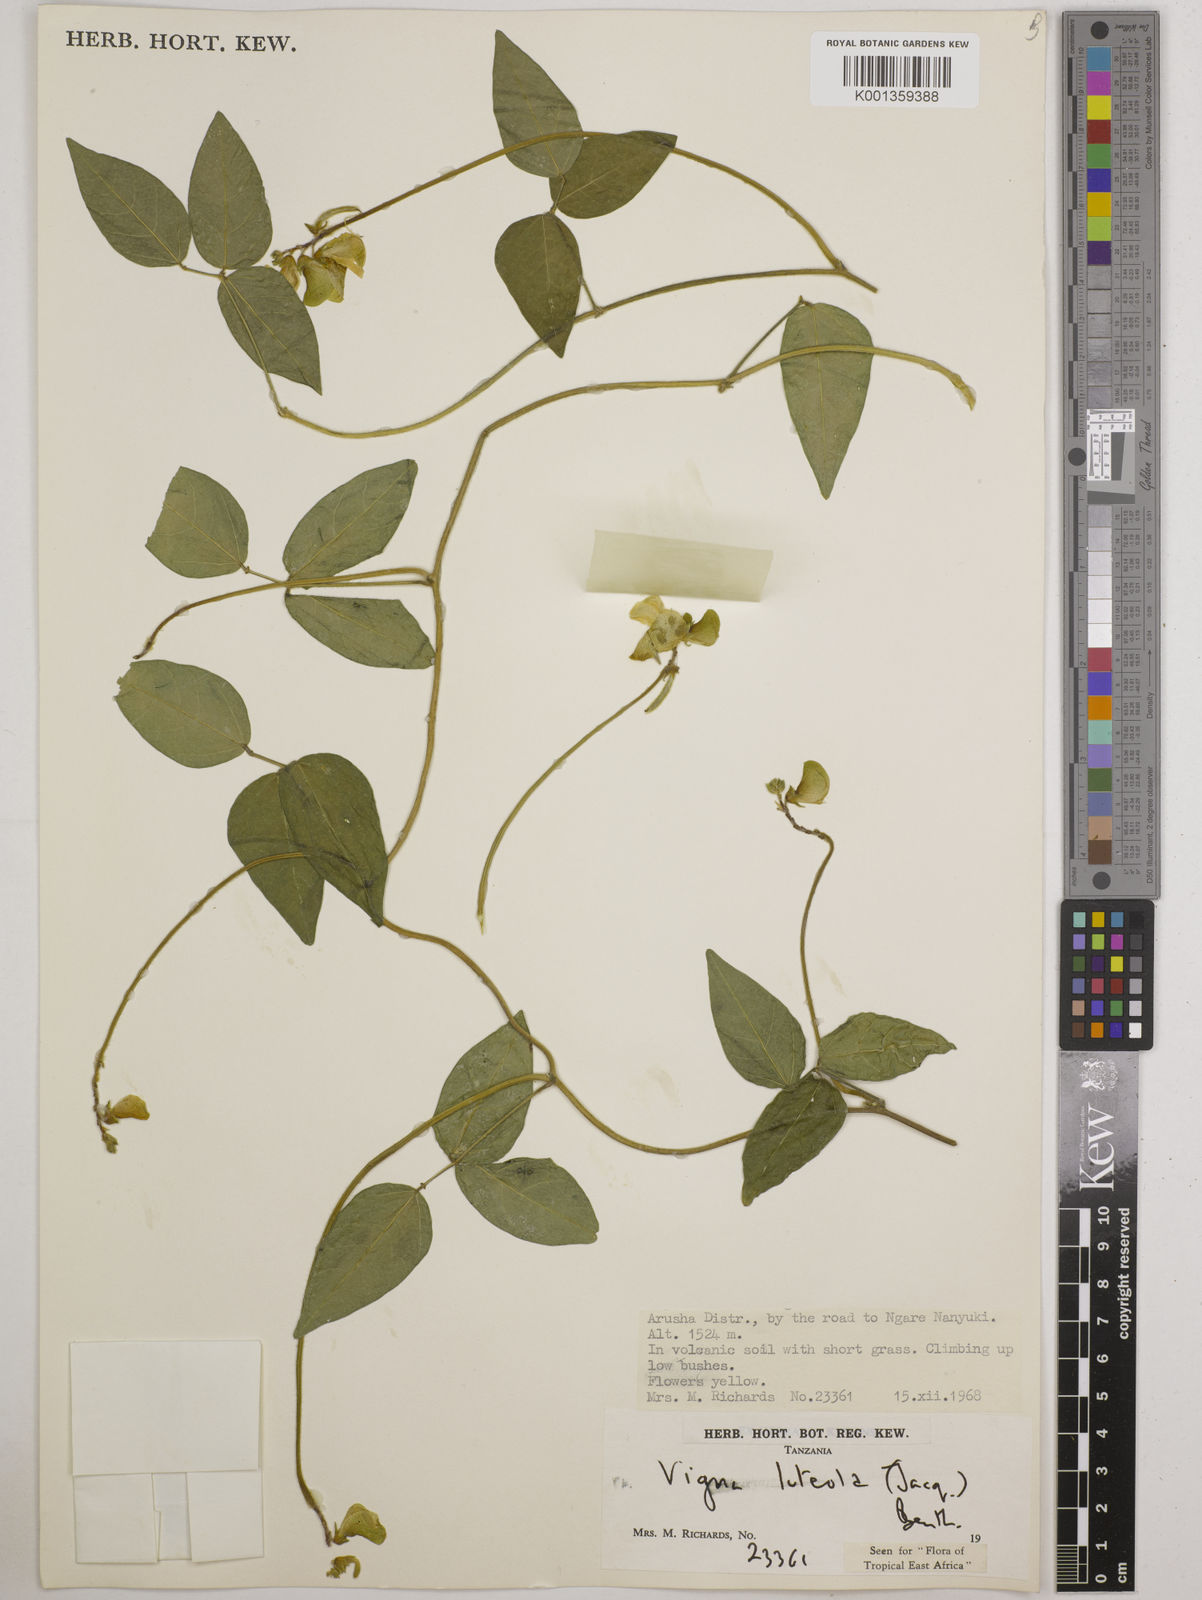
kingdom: Plantae
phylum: Tracheophyta
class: Magnoliopsida
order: Fabales
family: Fabaceae
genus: Vigna
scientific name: Vigna luteola
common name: Hairypod cowpea
